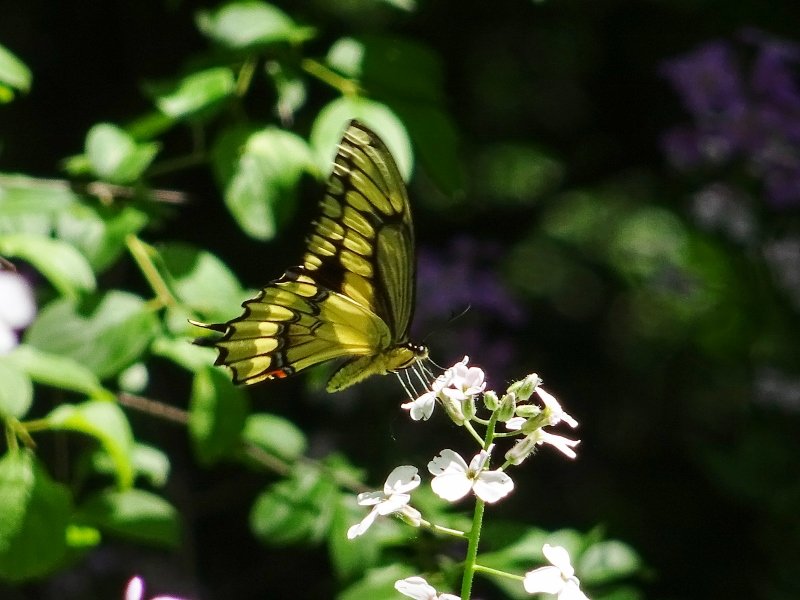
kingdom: Animalia
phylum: Arthropoda
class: Insecta
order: Lepidoptera
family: Papilionidae
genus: Papilio
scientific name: Papilio cresphontes
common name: Eastern Giant Swallowtail
